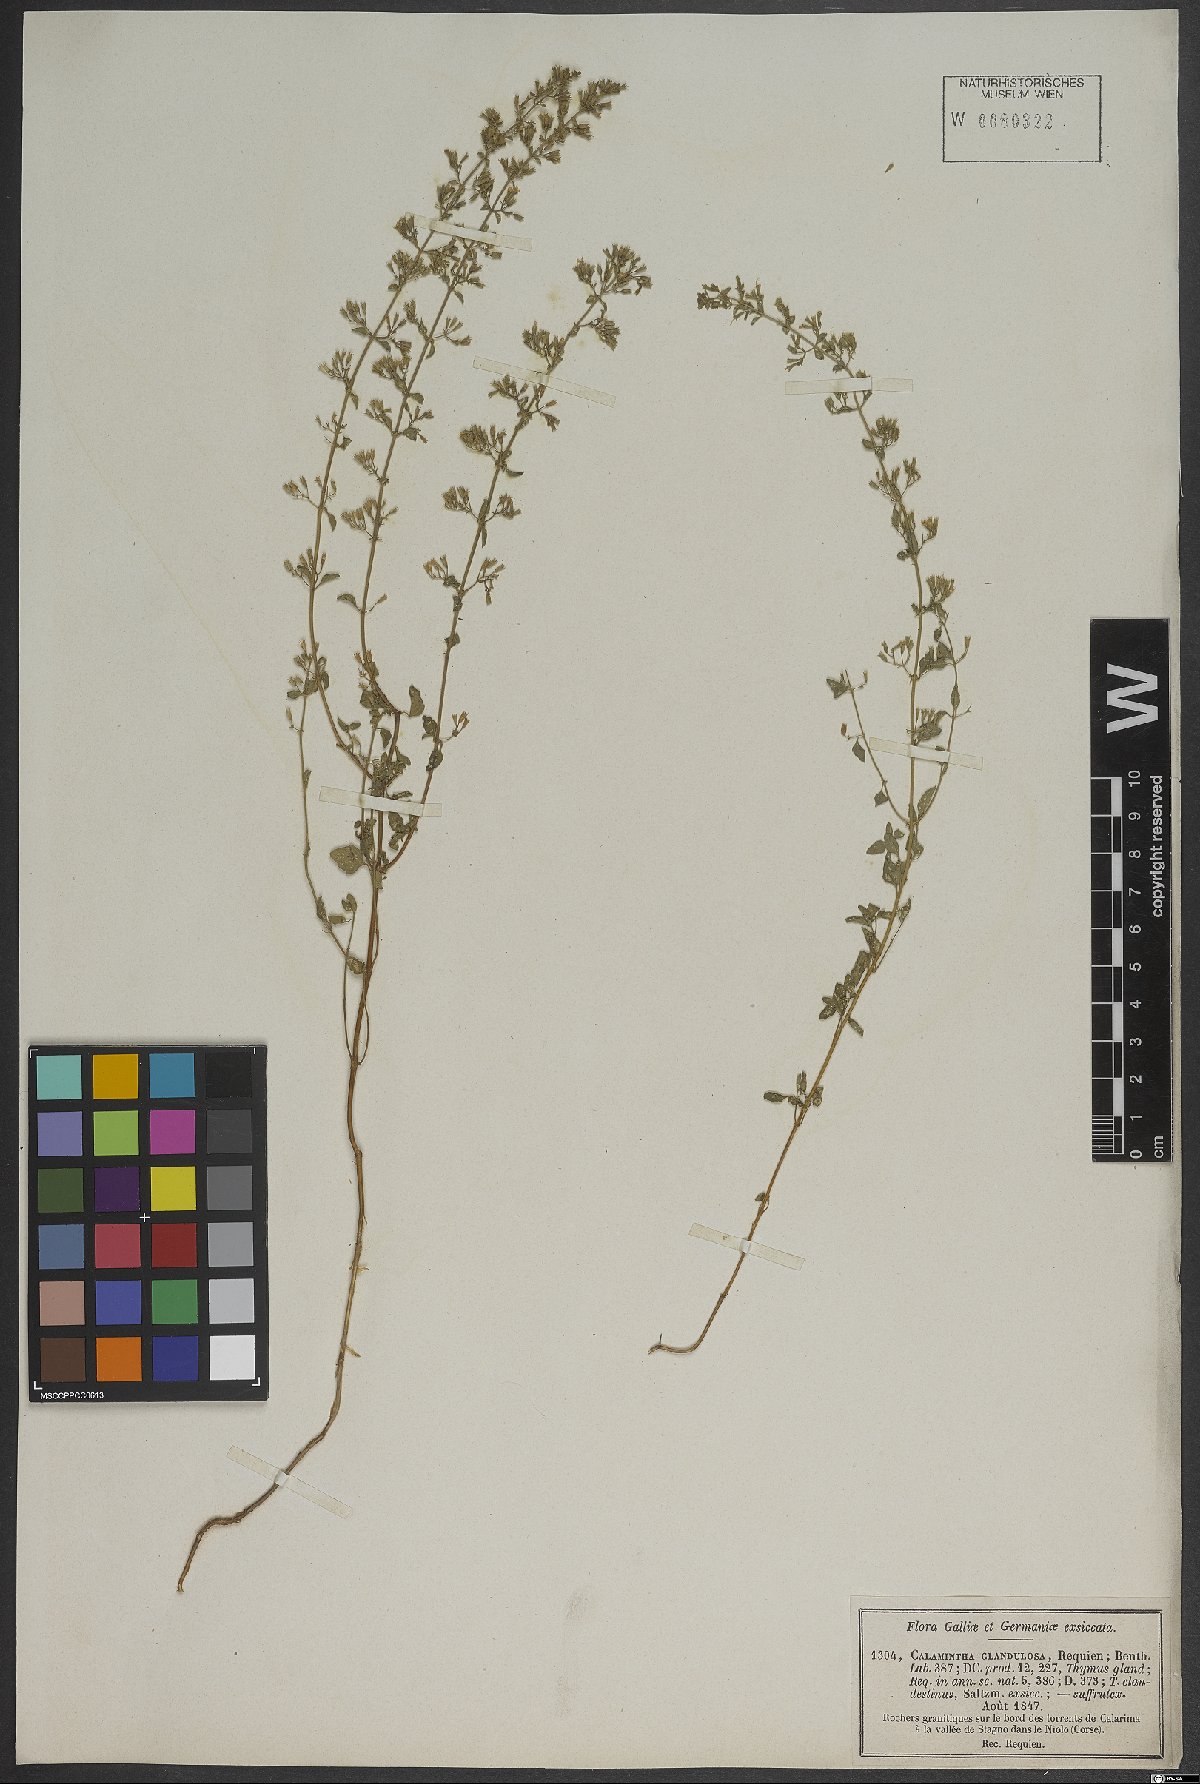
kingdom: Plantae
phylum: Tracheophyta
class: Magnoliopsida
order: Lamiales
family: Lamiaceae
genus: Clinopodium
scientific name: Clinopodium nepeta
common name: Lesser calamint
